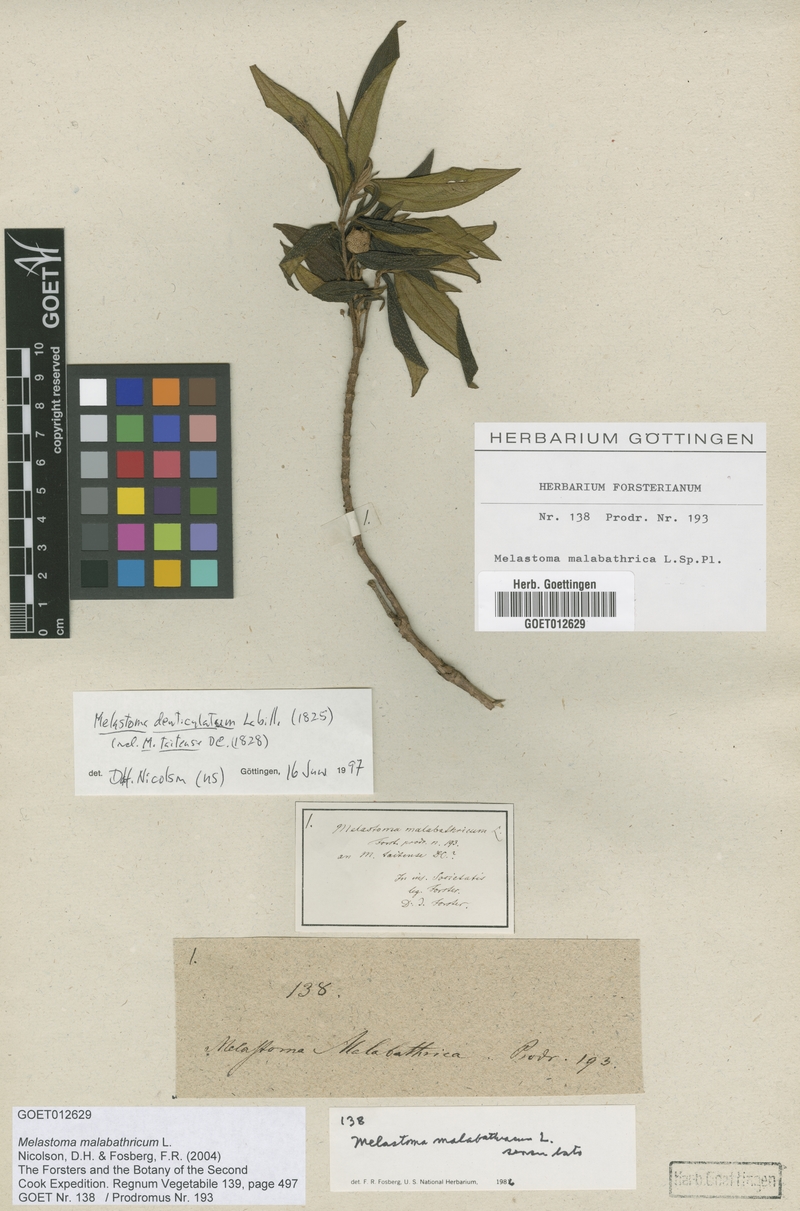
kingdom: Plantae
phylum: Tracheophyta
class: Magnoliopsida
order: Myrtales
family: Melastomataceae
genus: Melastoma
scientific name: Melastoma malabathricum
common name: Indian-rhododendron
